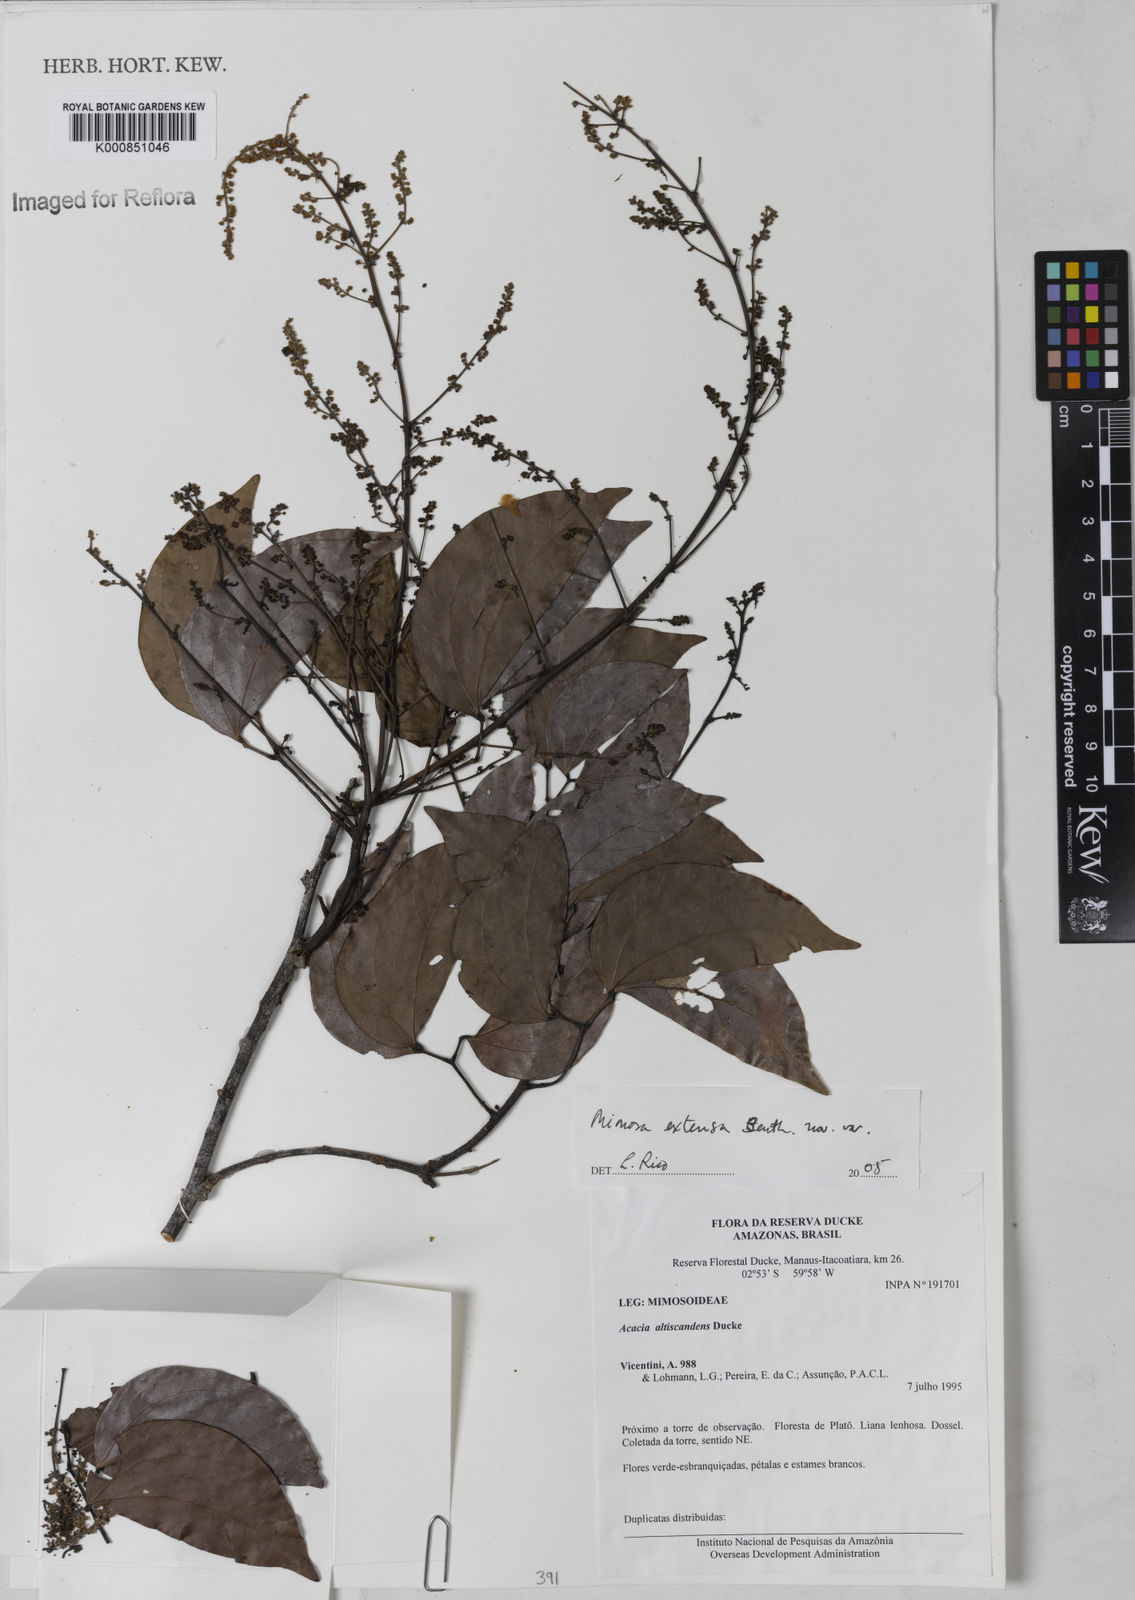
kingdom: Plantae
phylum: Tracheophyta
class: Magnoliopsida
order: Fabales
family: Fabaceae
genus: Mimosa
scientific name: Mimosa extensa
